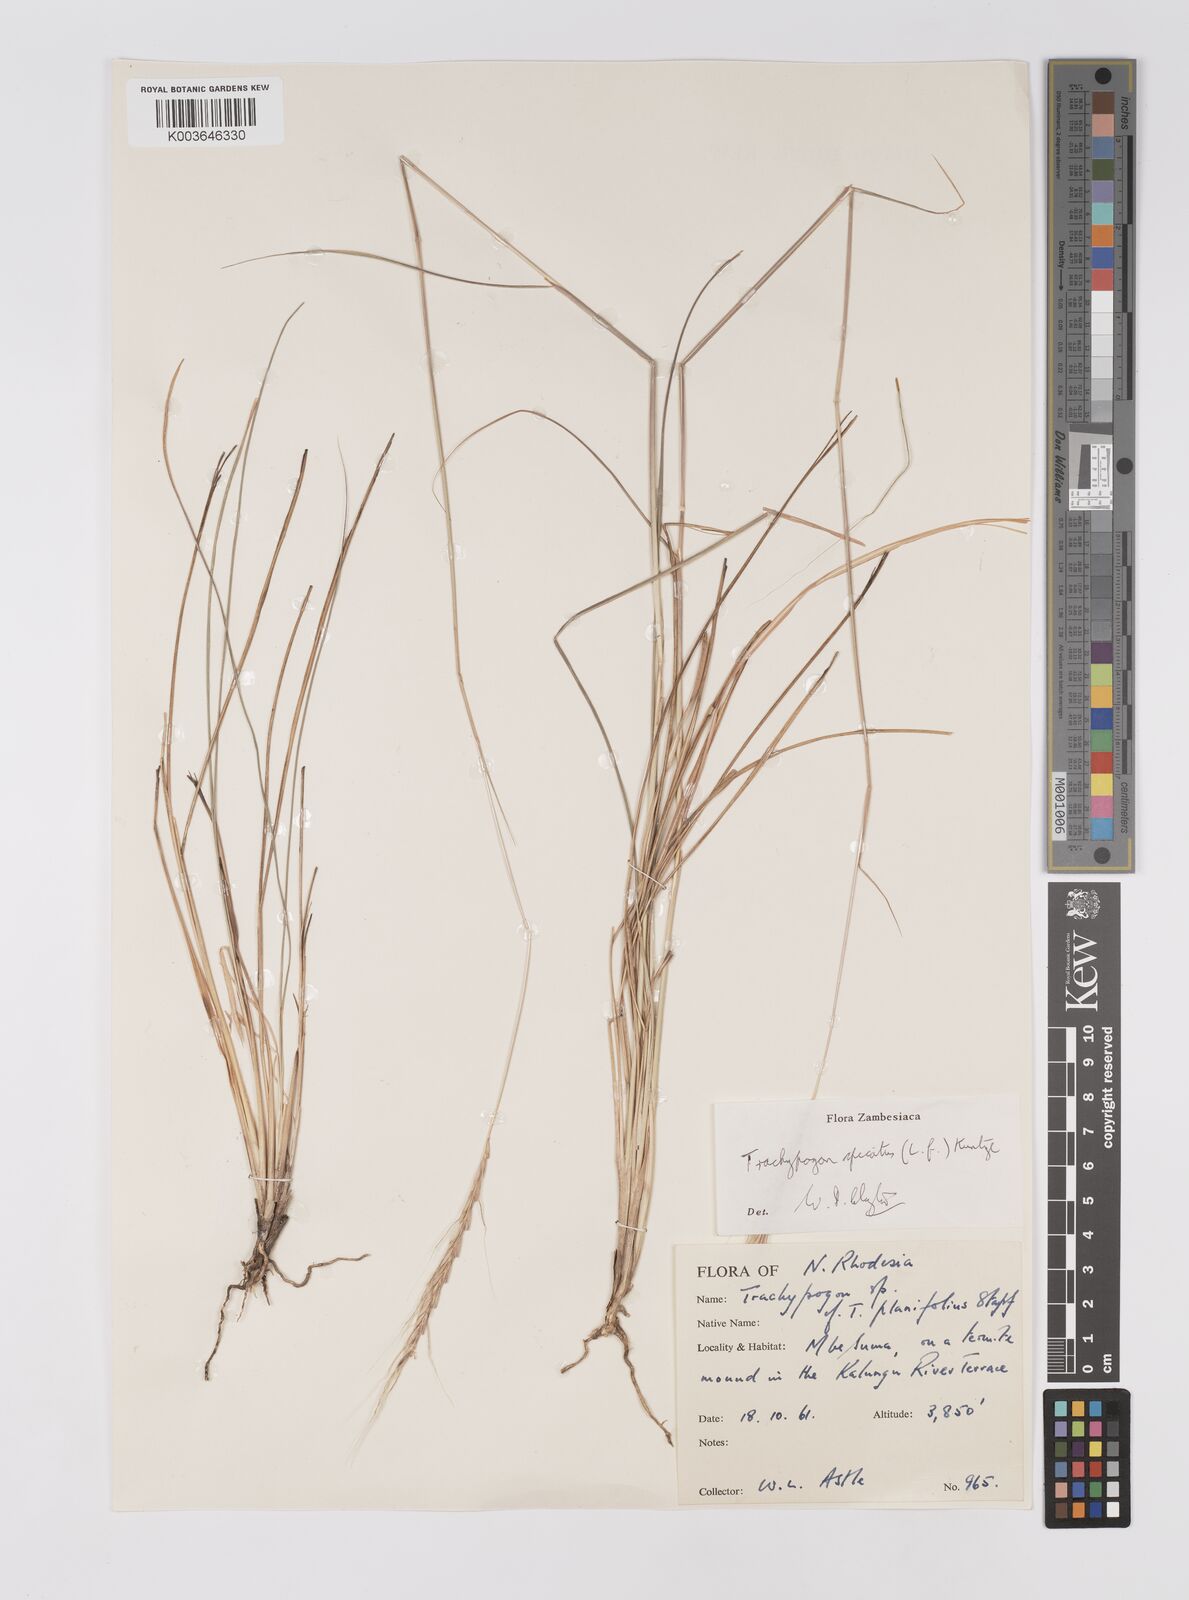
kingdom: Plantae
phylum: Tracheophyta
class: Liliopsida
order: Poales
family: Poaceae
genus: Trachypogon
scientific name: Trachypogon spicatus
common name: Crinkle-awn
